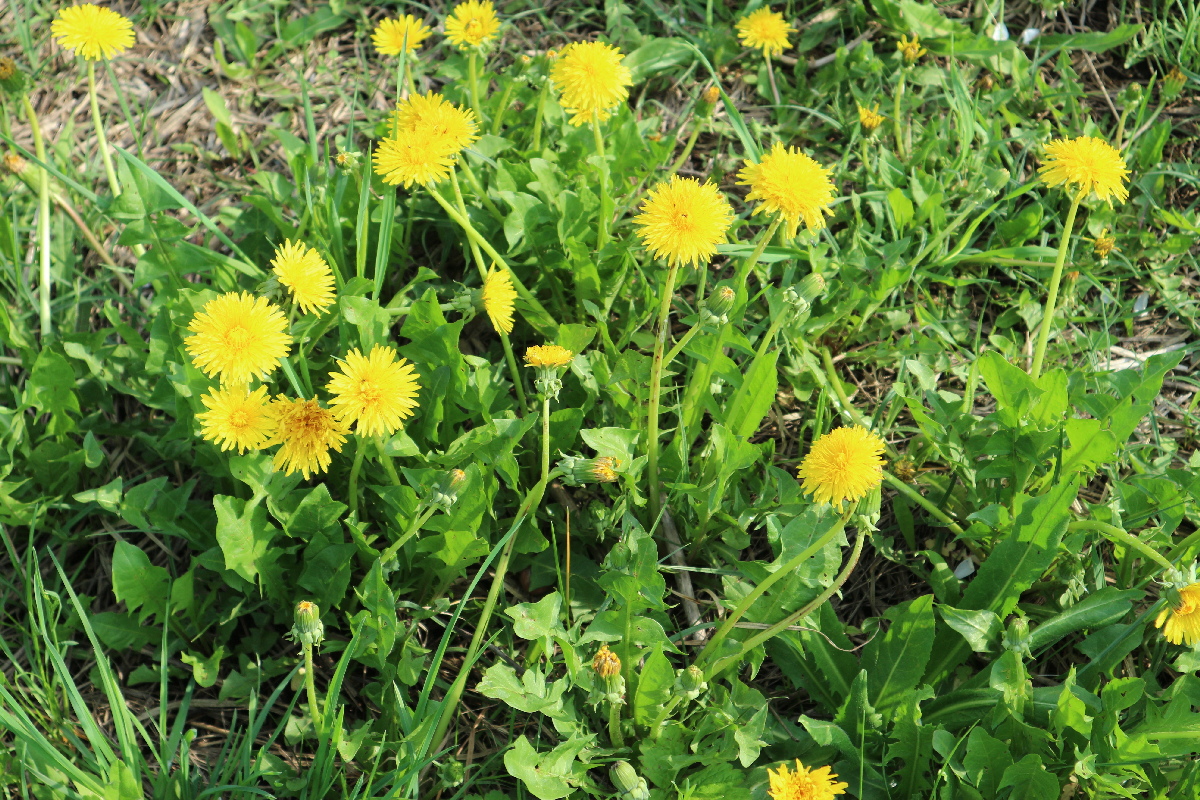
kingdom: Plantae
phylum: Tracheophyta
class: Magnoliopsida
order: Asterales
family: Asteraceae
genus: Taraxacum
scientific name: Taraxacum officinale
